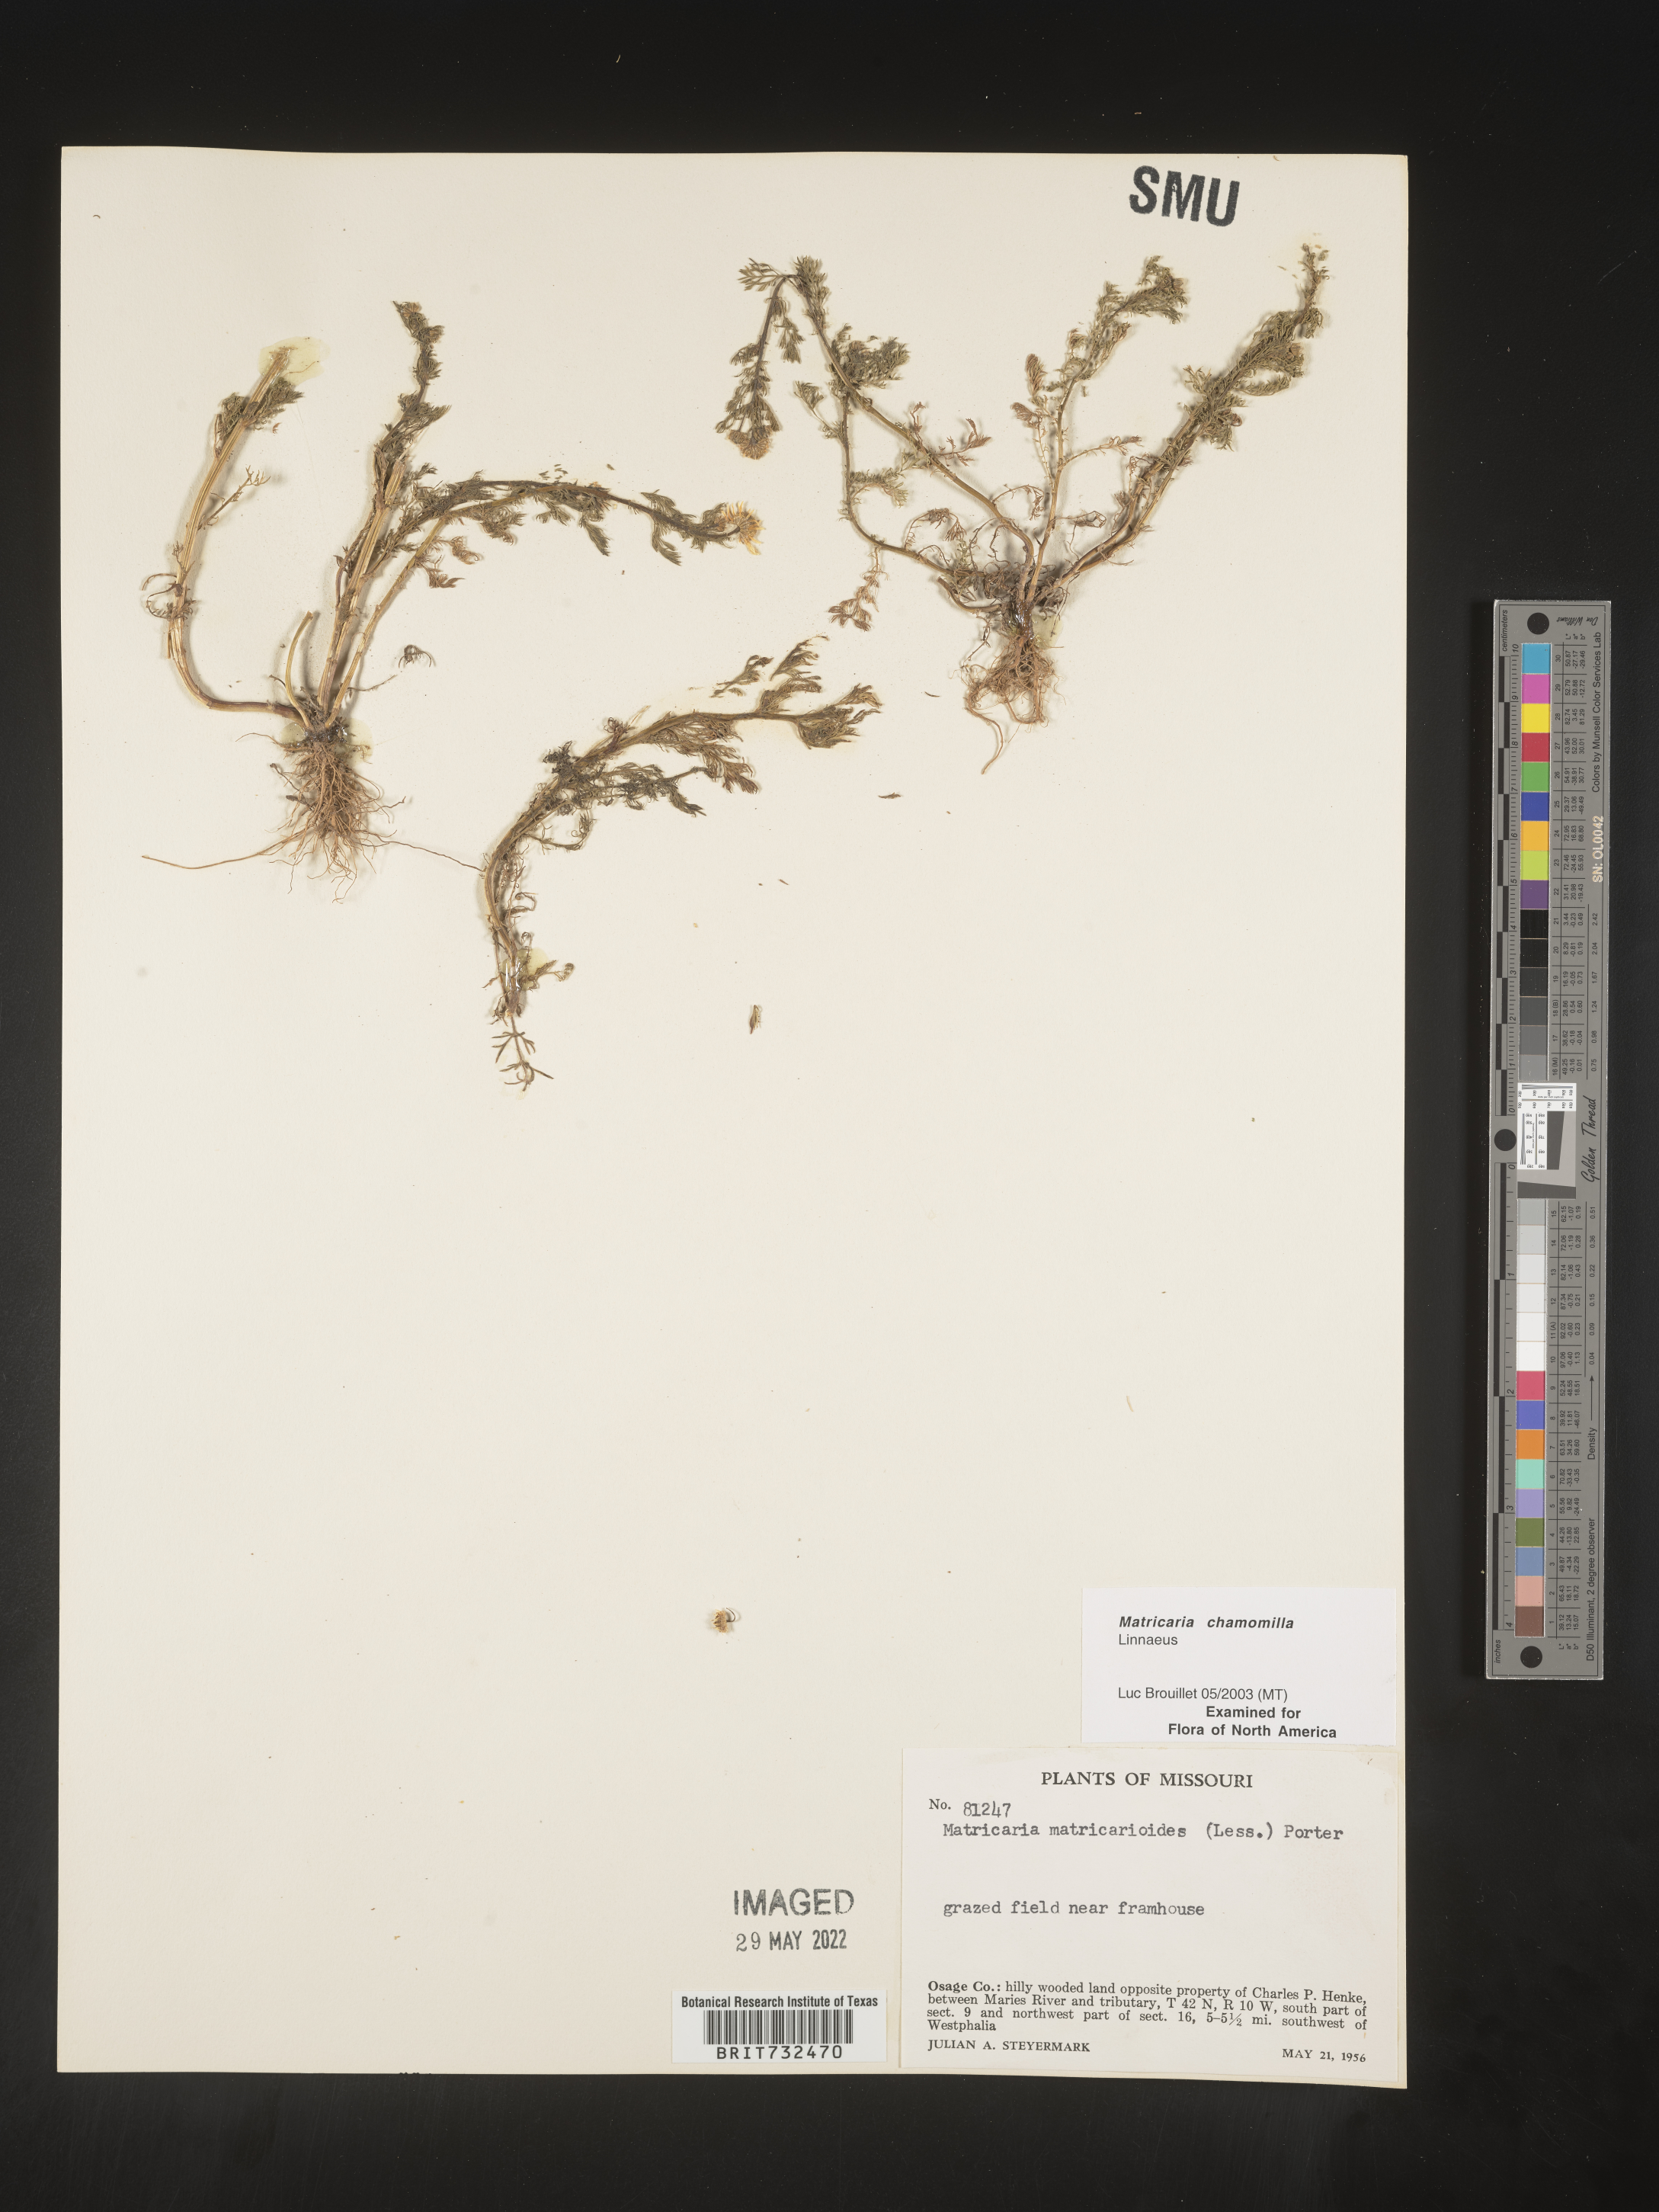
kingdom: Plantae
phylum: Tracheophyta
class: Magnoliopsida
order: Asterales
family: Asteraceae
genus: Matricaria
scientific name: Matricaria chamomilla
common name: Scented mayweed
